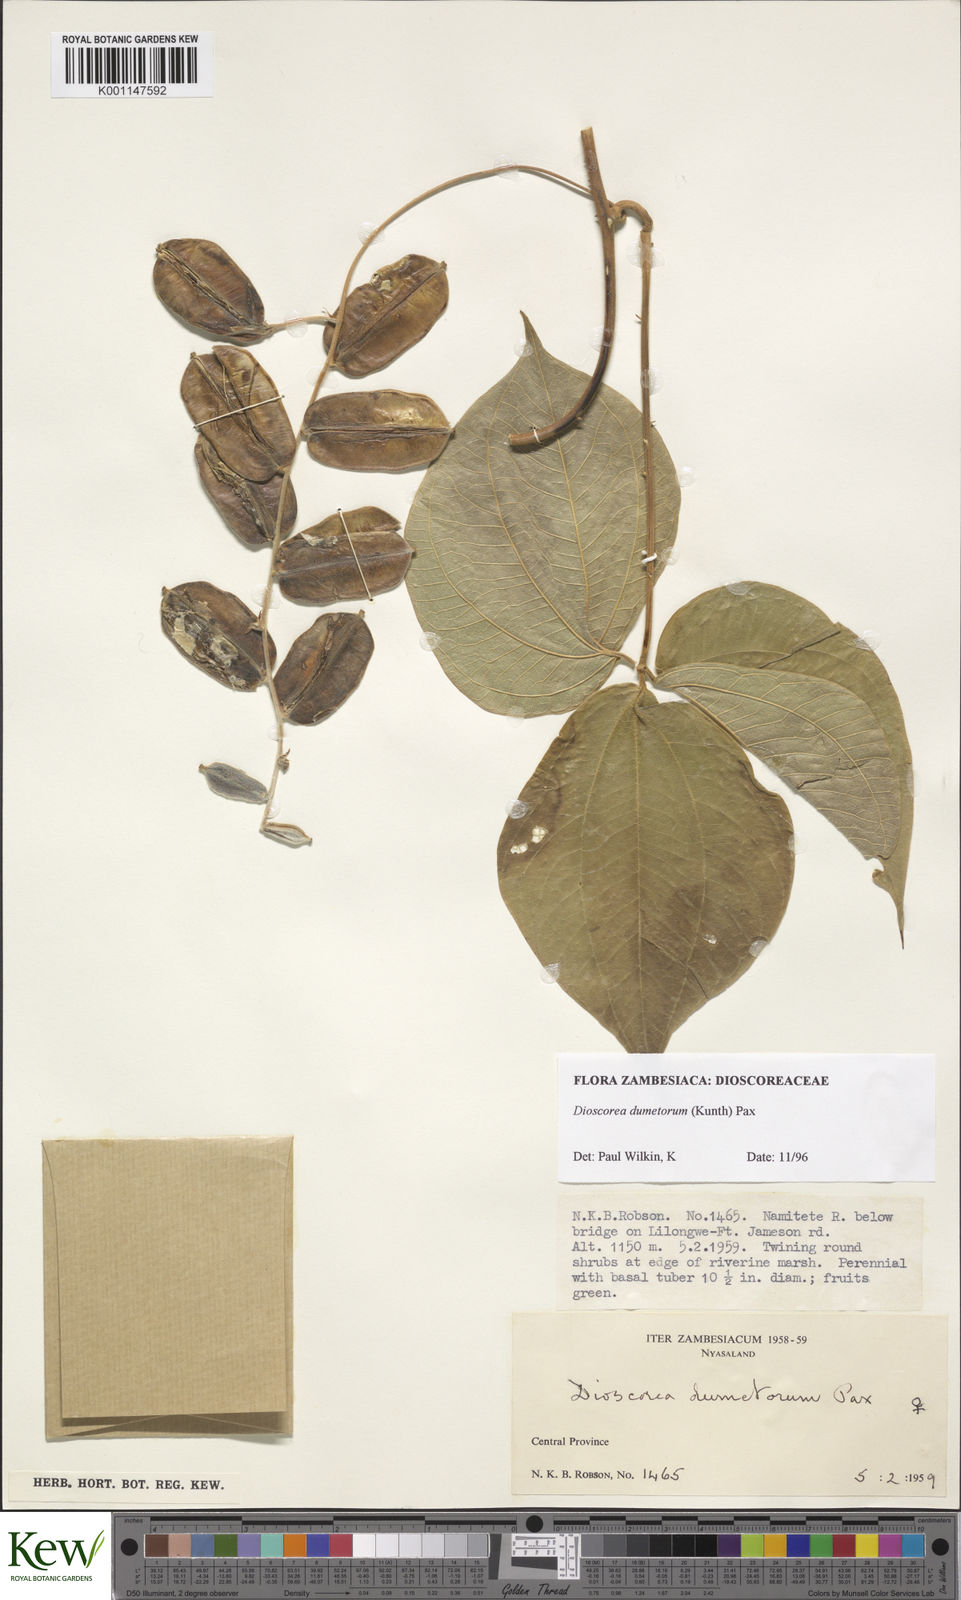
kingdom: Plantae
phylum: Tracheophyta
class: Liliopsida
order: Dioscoreales
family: Dioscoreaceae
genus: Dioscorea
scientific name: Dioscorea dumetorum
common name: African bitter yam
